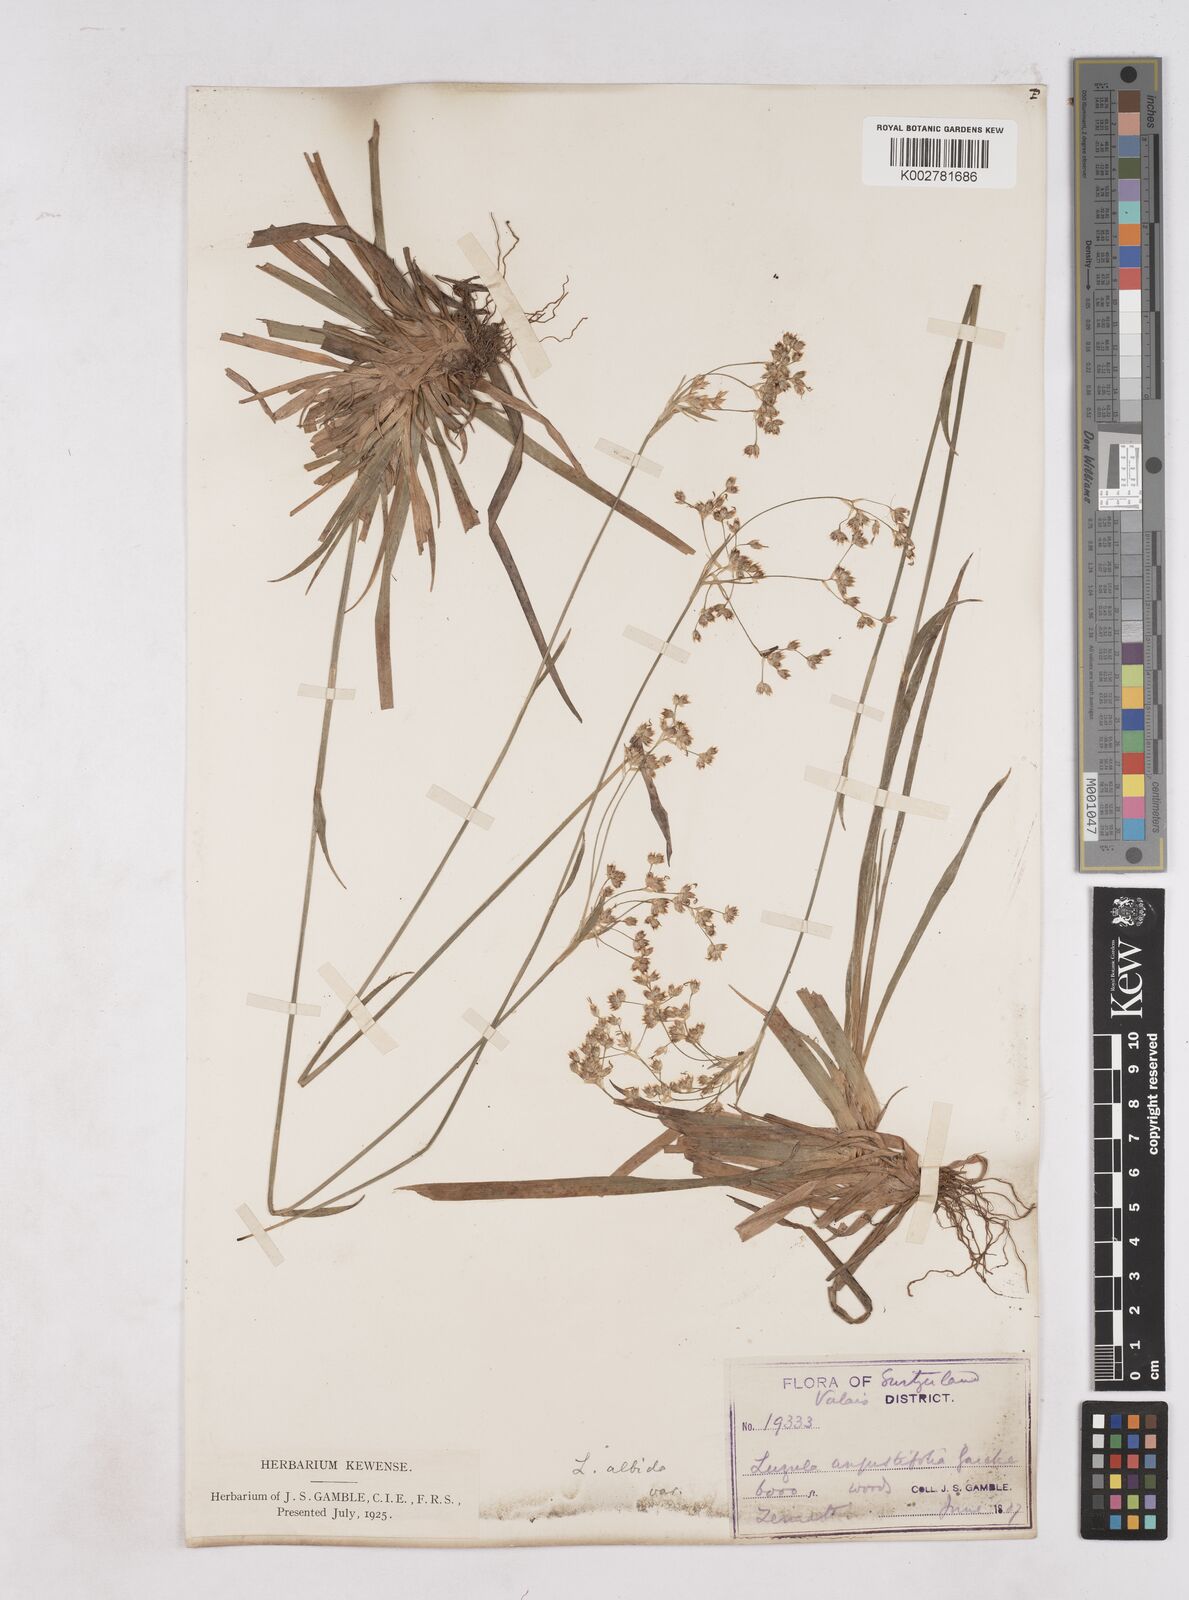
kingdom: Plantae
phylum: Tracheophyta
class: Liliopsida
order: Poales
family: Juncaceae
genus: Luzula
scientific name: Luzula luzuloides
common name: White wood-rush
